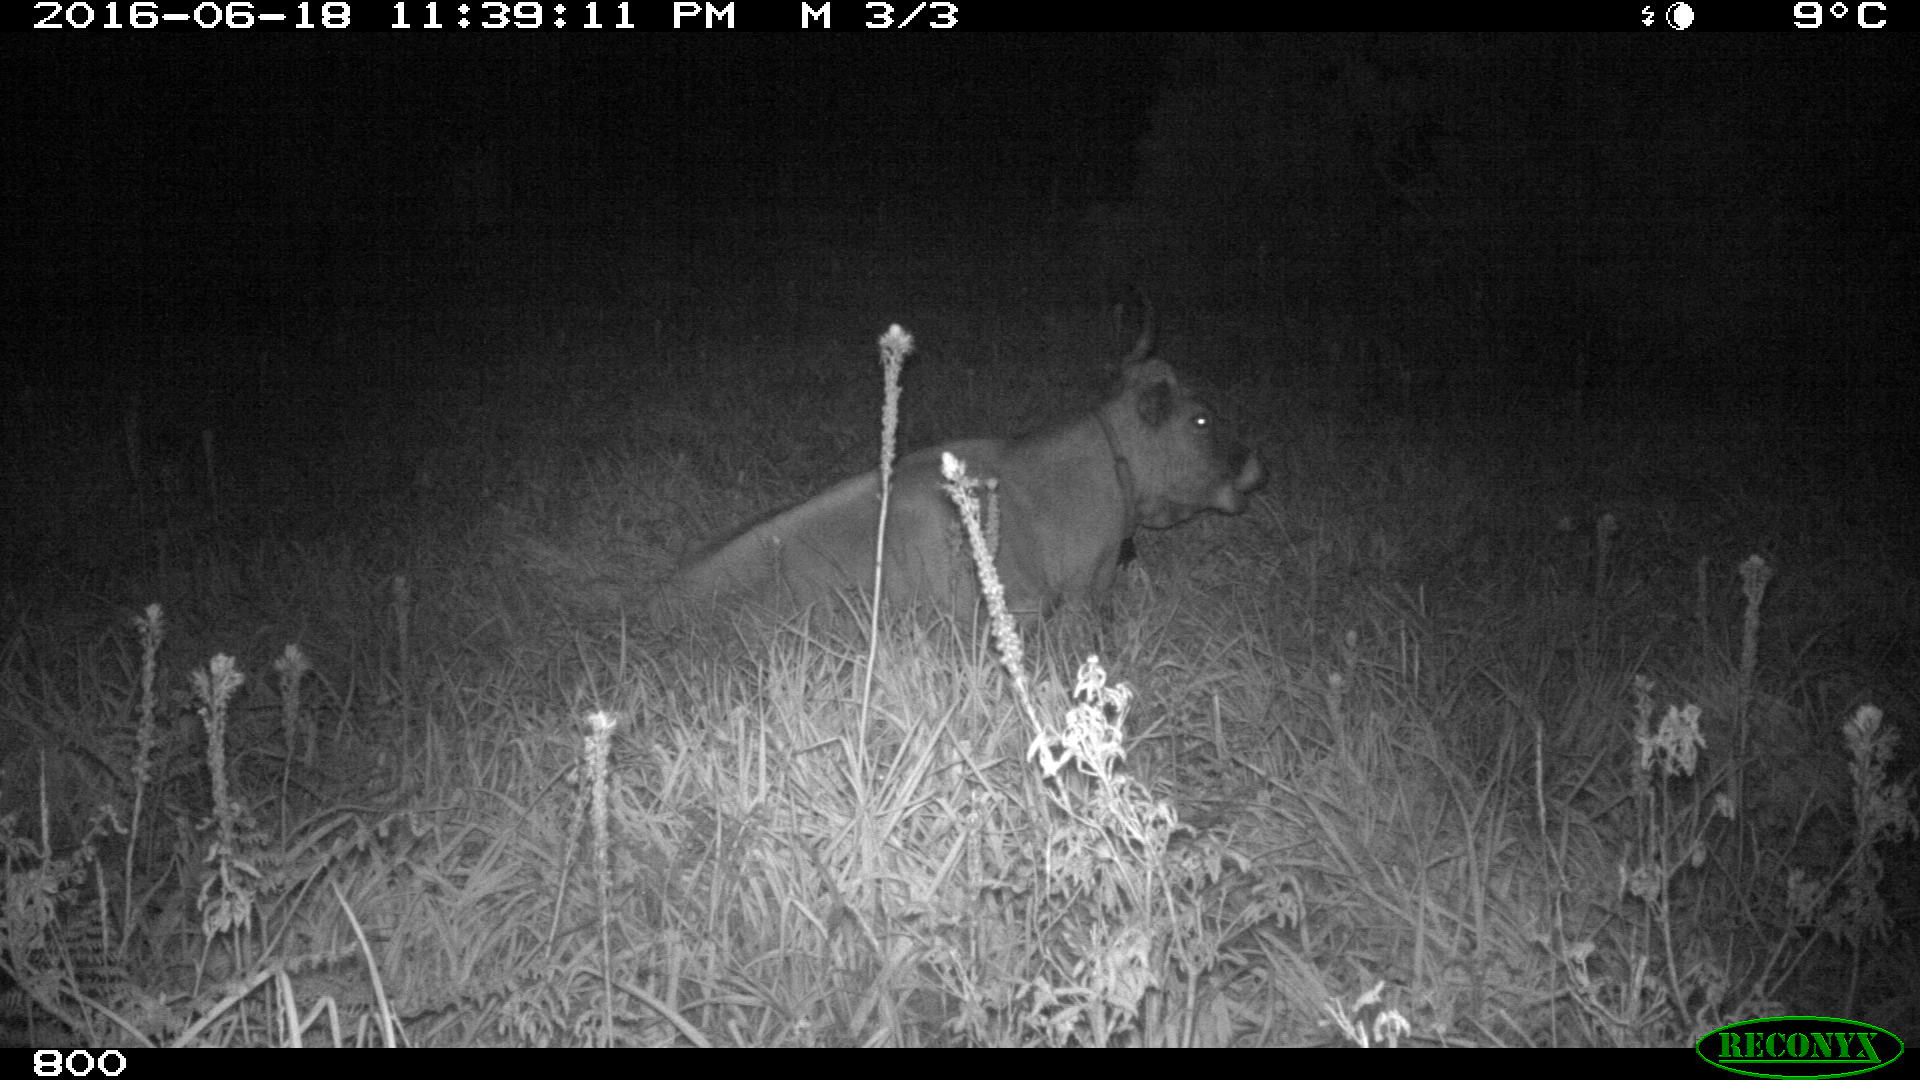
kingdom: Animalia
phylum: Chordata
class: Mammalia
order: Artiodactyla
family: Bovidae
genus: Bos
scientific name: Bos taurus
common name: Domesticated cattle
